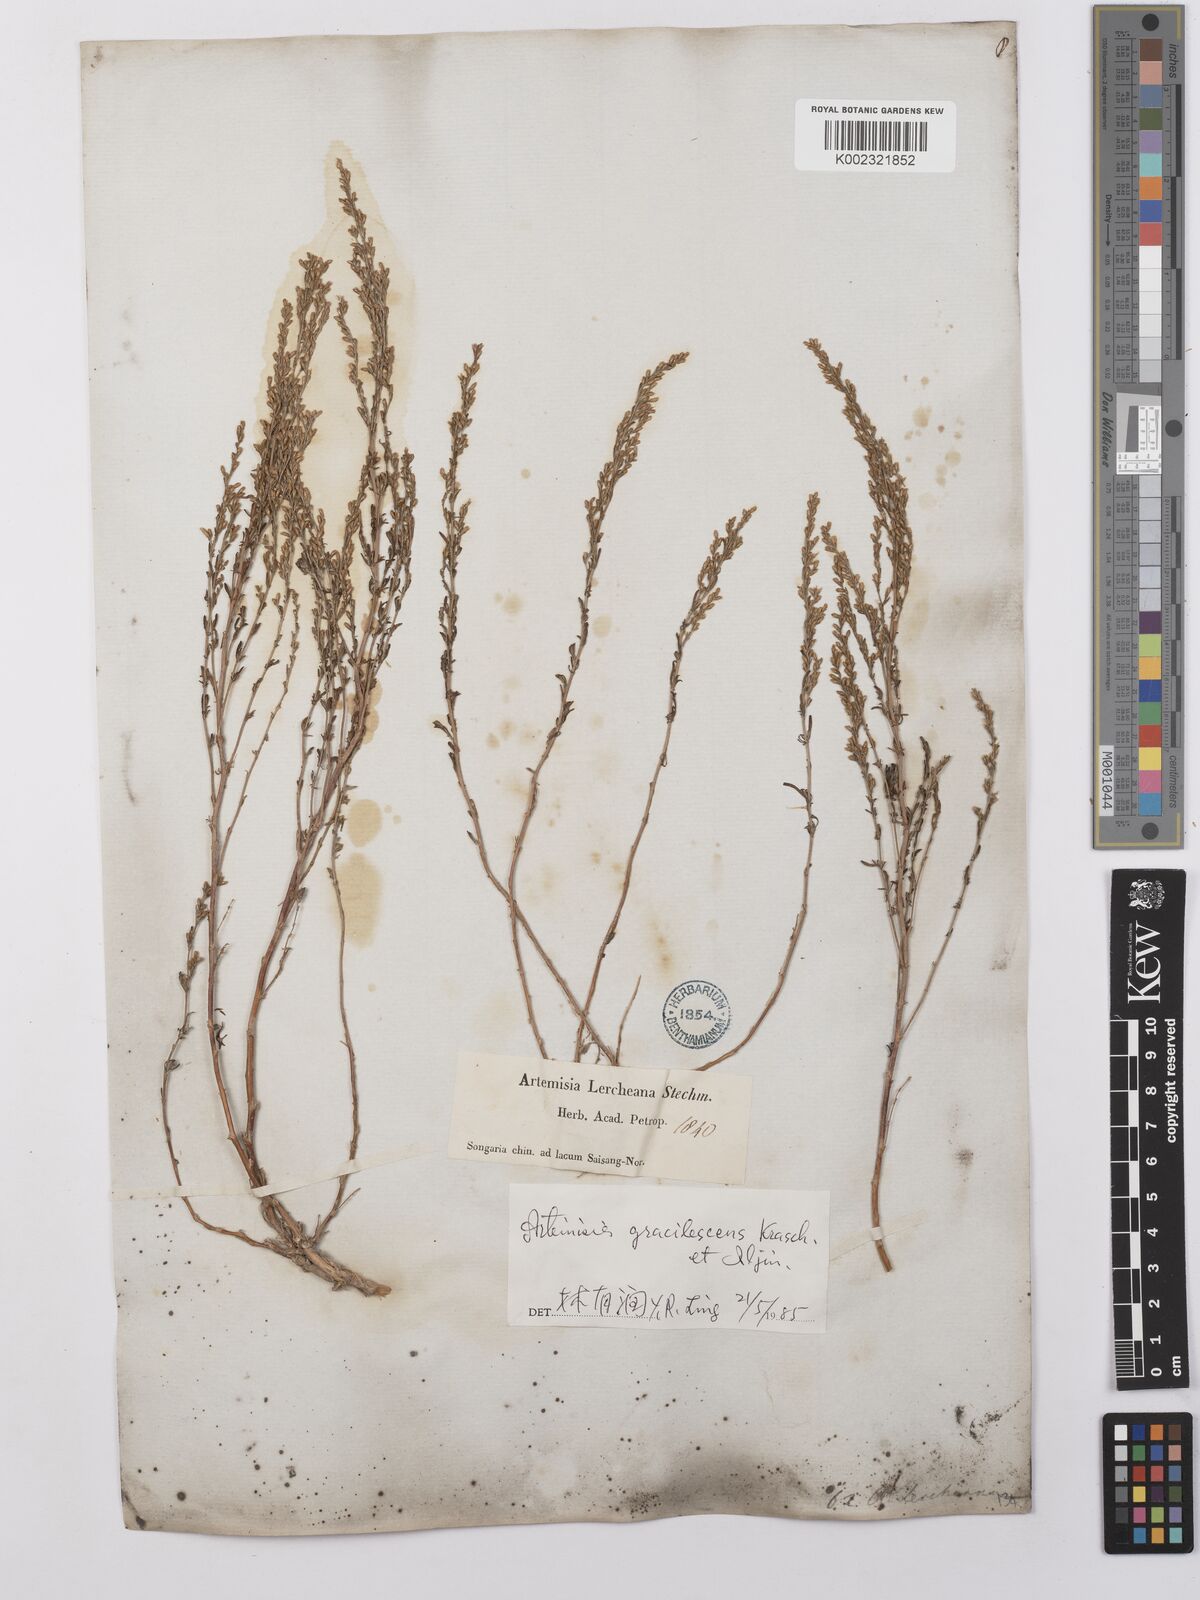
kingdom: Plantae
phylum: Tracheophyta
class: Magnoliopsida
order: Asterales
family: Asteraceae
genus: Artemisia
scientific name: Artemisia gracilescens
